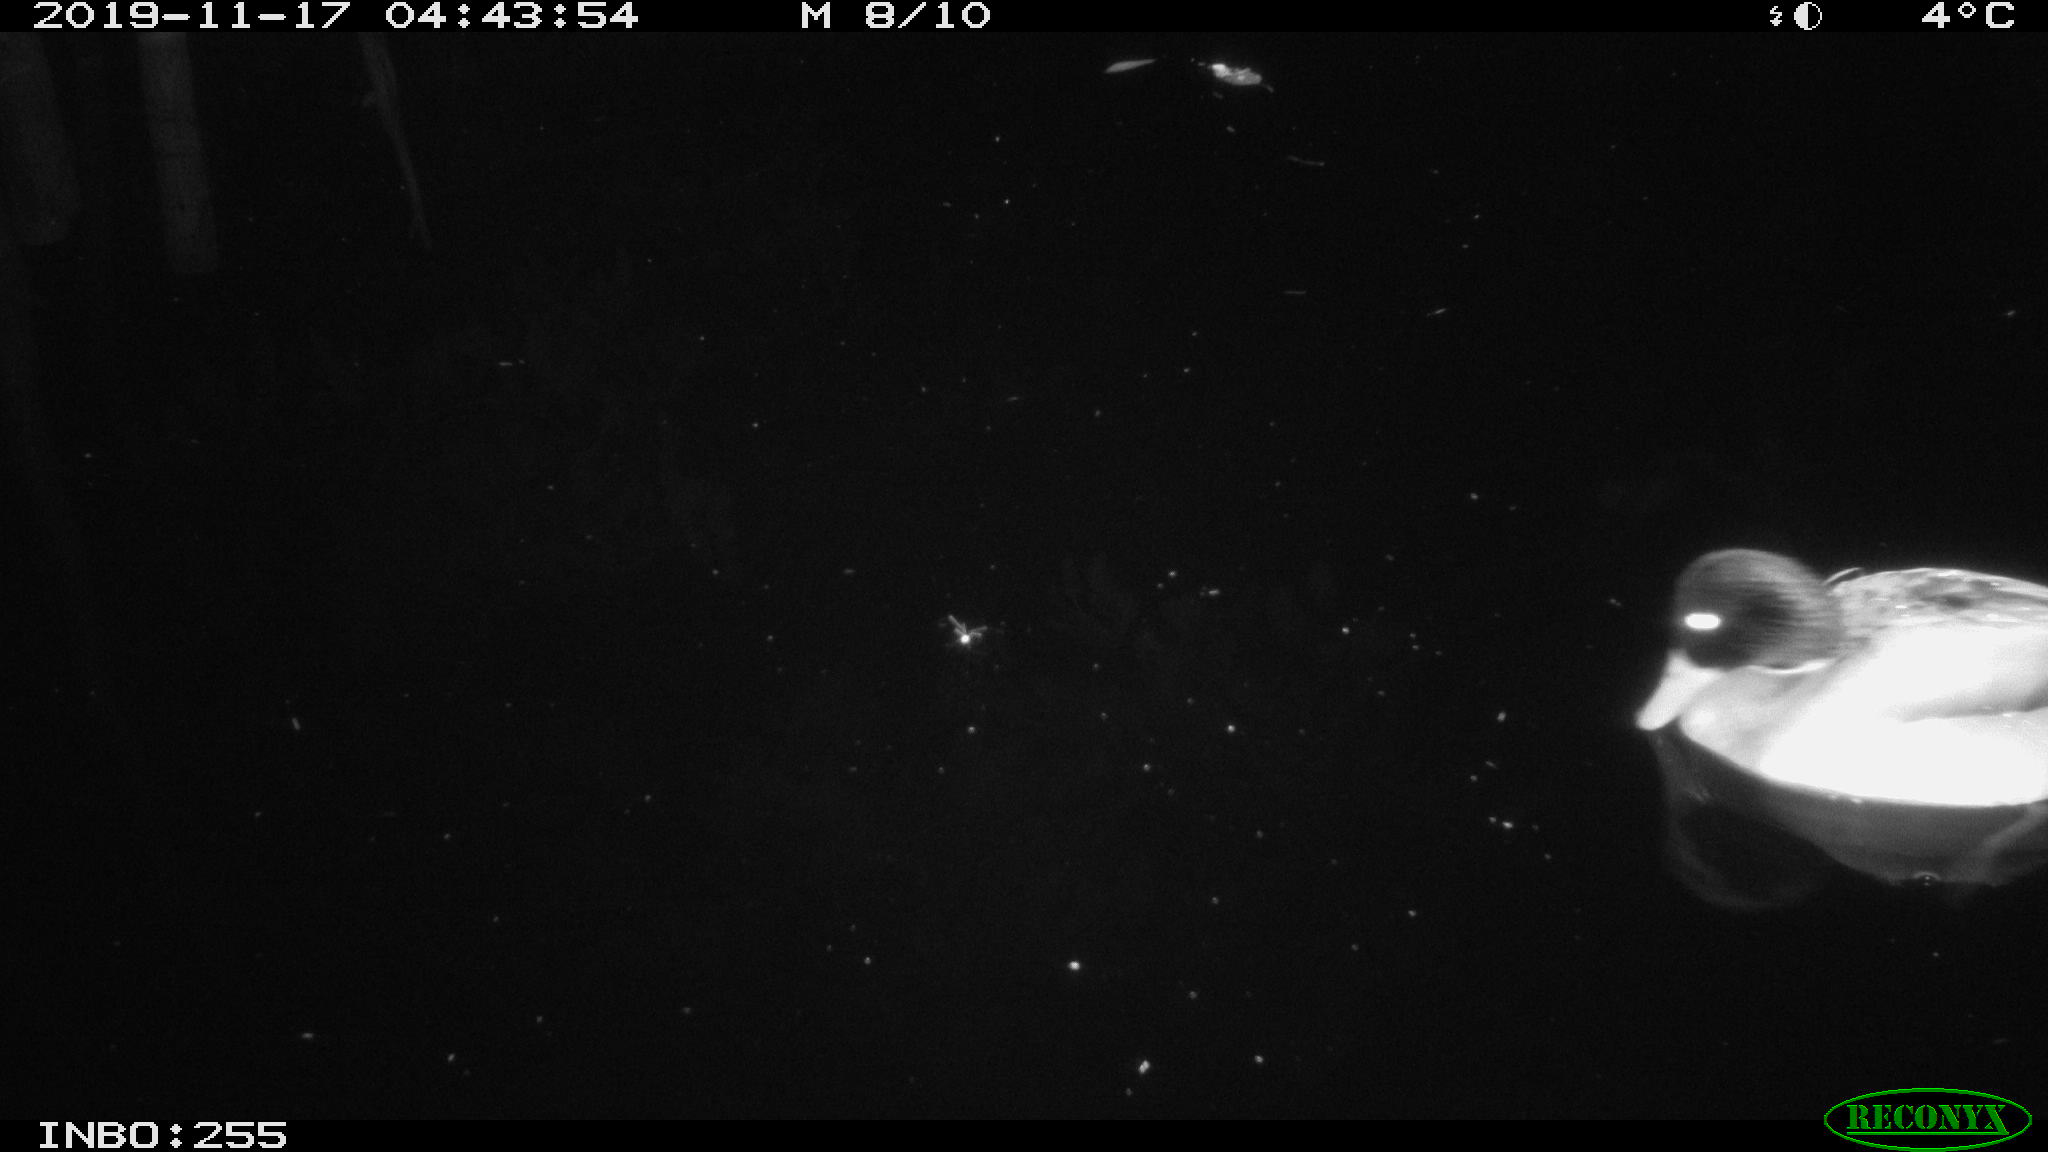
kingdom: Animalia
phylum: Chordata
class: Aves
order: Anseriformes
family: Anatidae
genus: Anas
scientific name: Anas platyrhynchos
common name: Mallard
